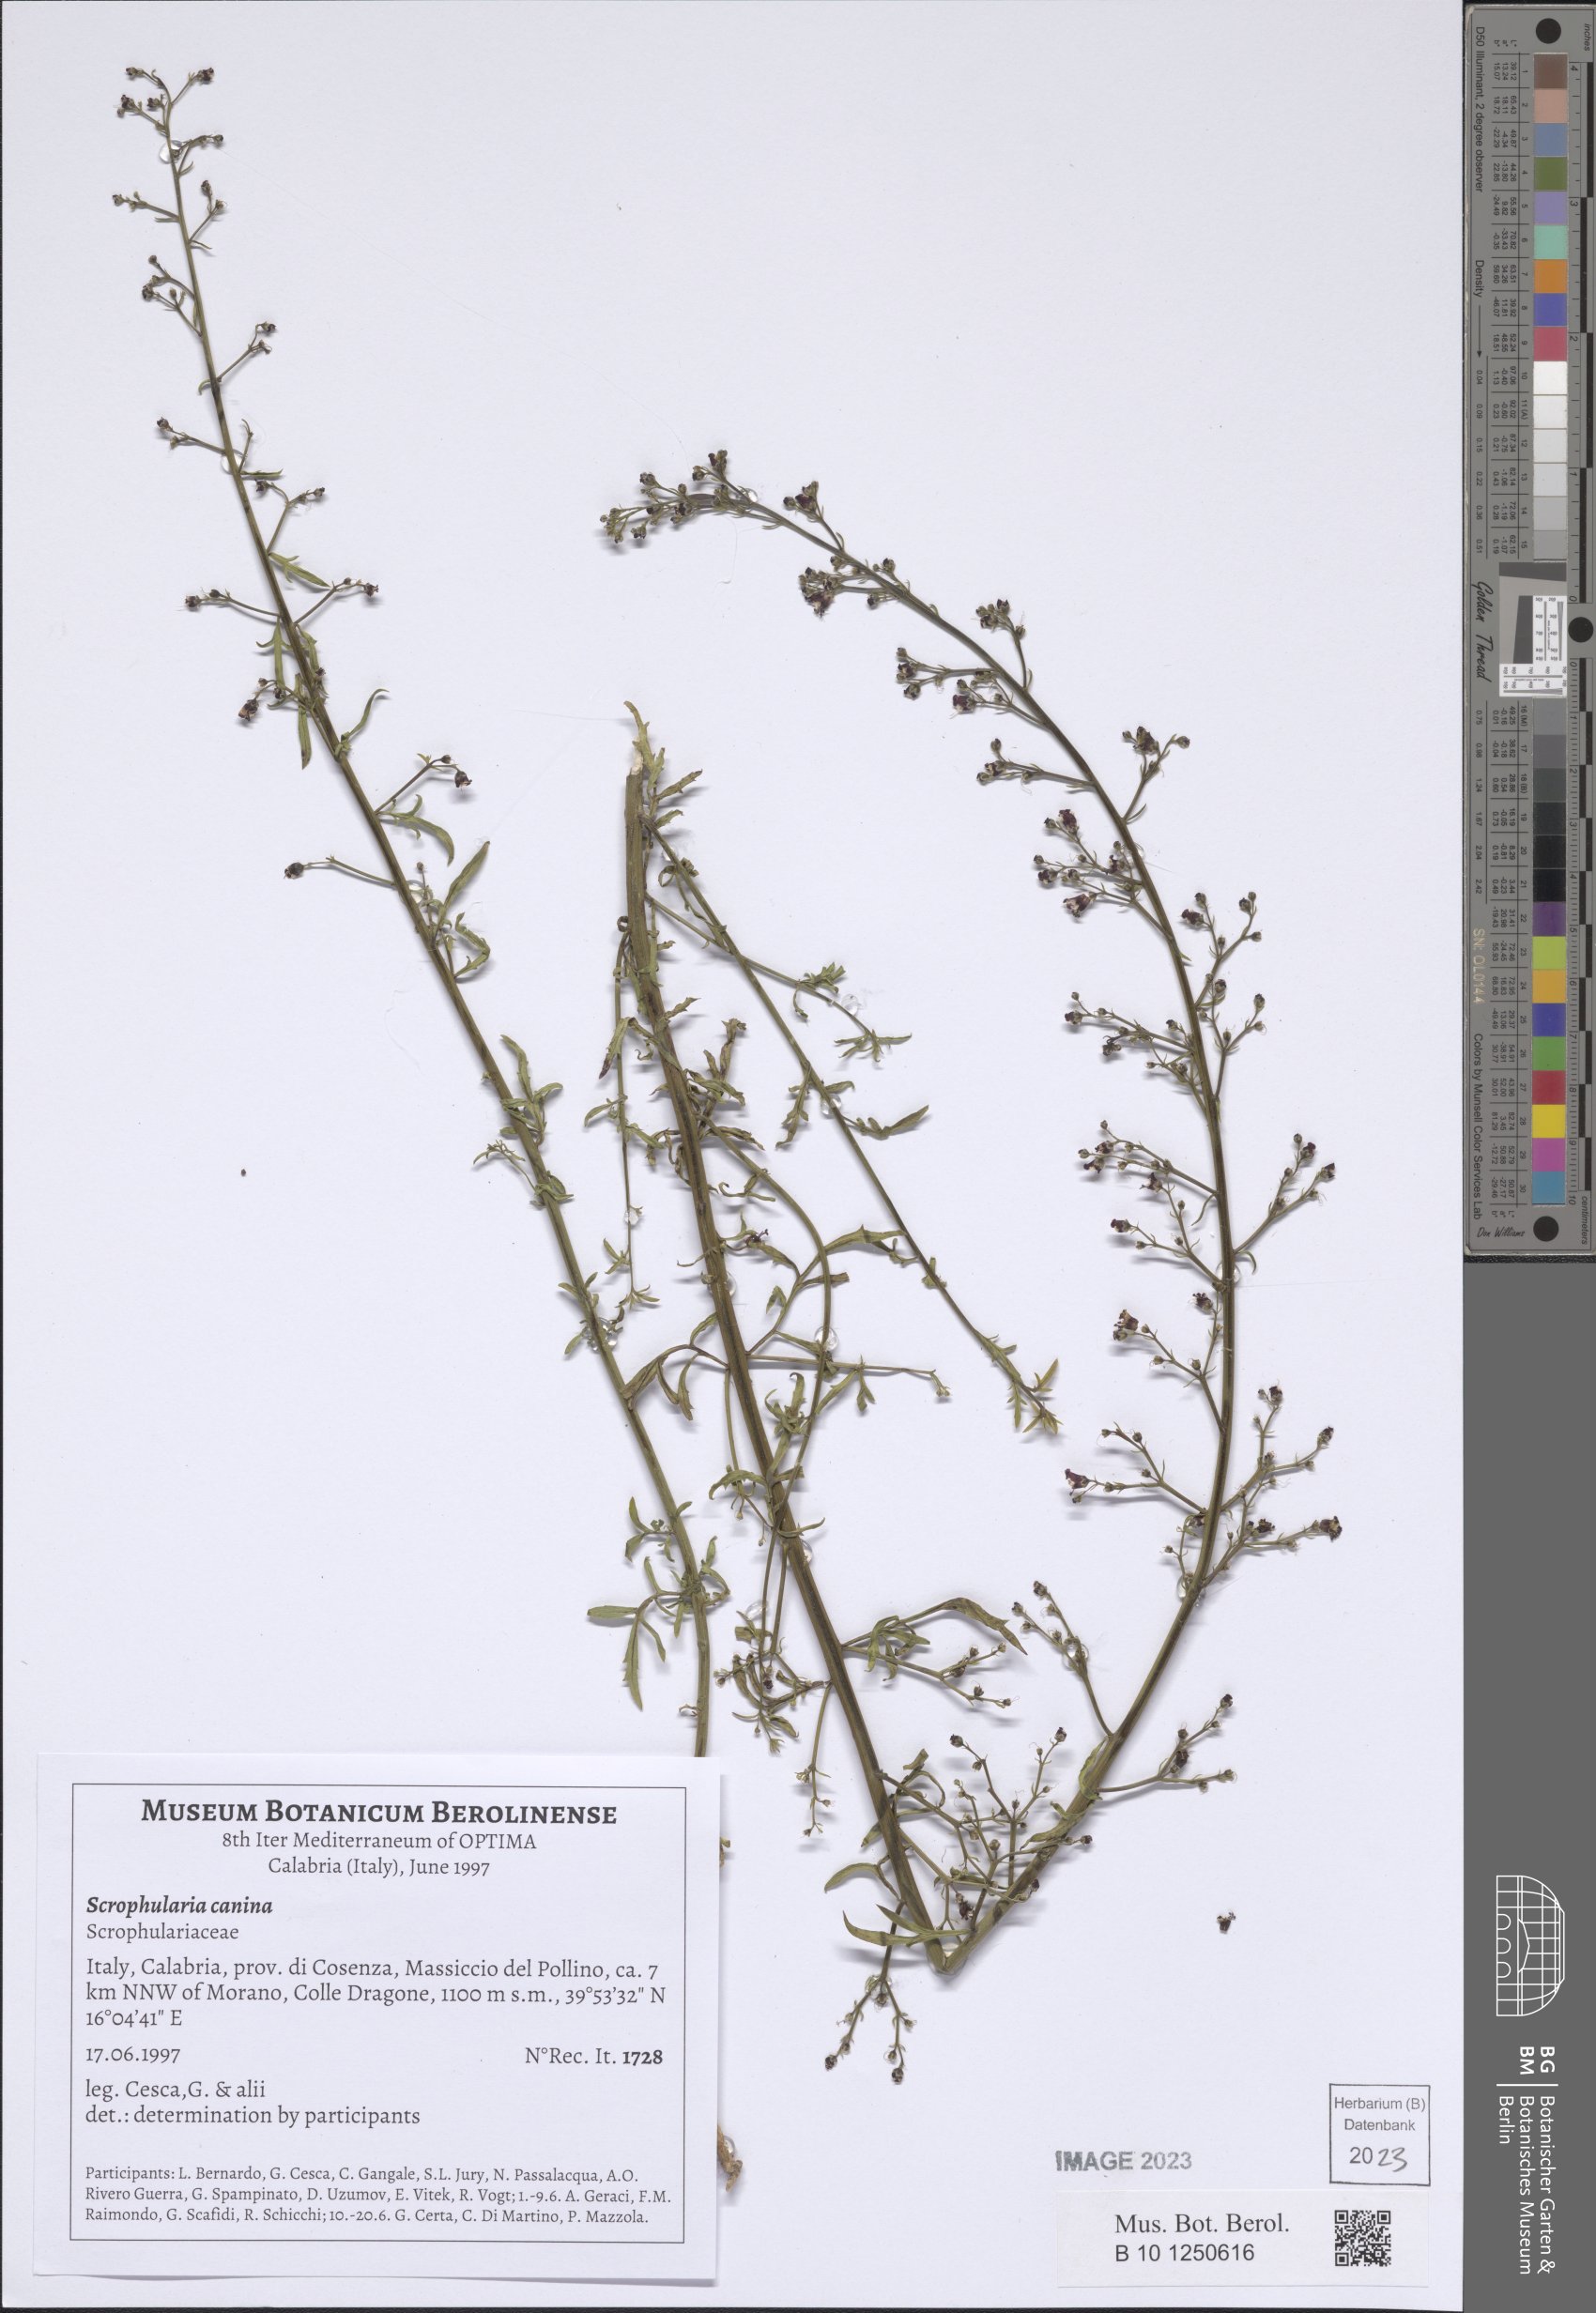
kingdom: Plantae
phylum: Tracheophyta
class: Magnoliopsida
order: Lamiales
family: Scrophulariaceae
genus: Scrophularia
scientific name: Scrophularia canina
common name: French figwort
